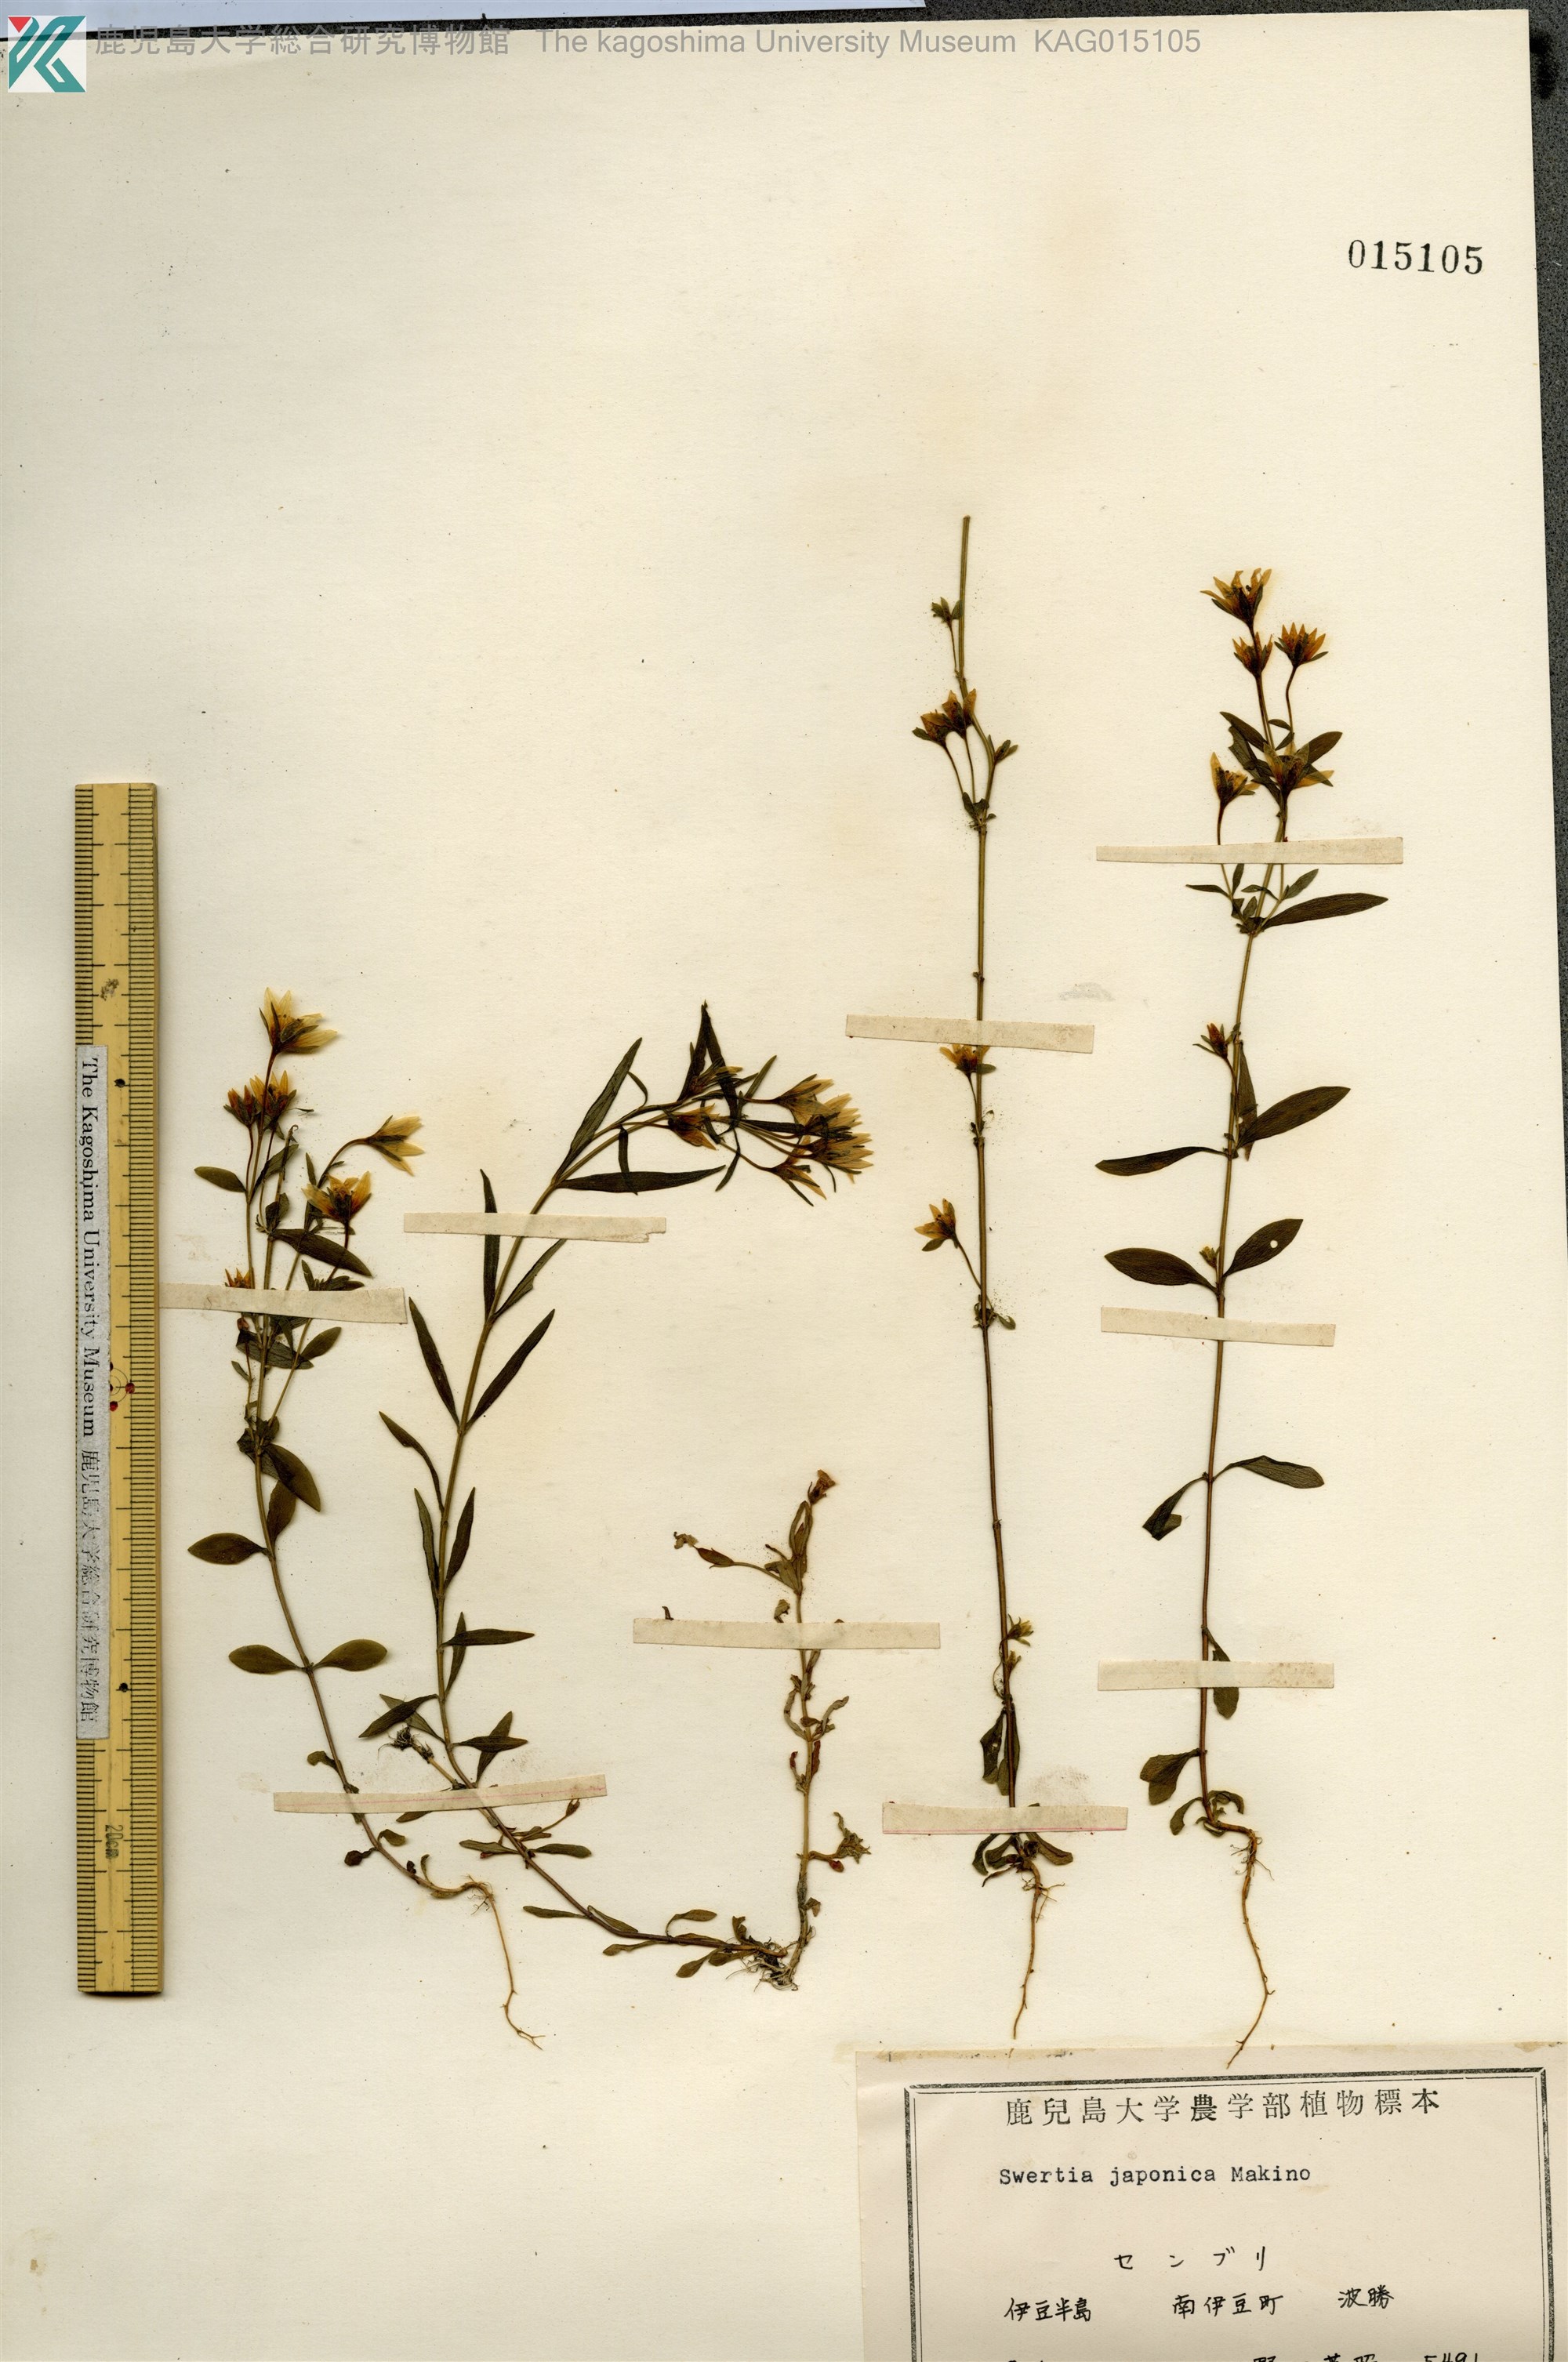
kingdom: Plantae
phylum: Tracheophyta
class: Magnoliopsida
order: Gentianales
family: Gentianaceae
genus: Swertia
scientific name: Swertia japonica
